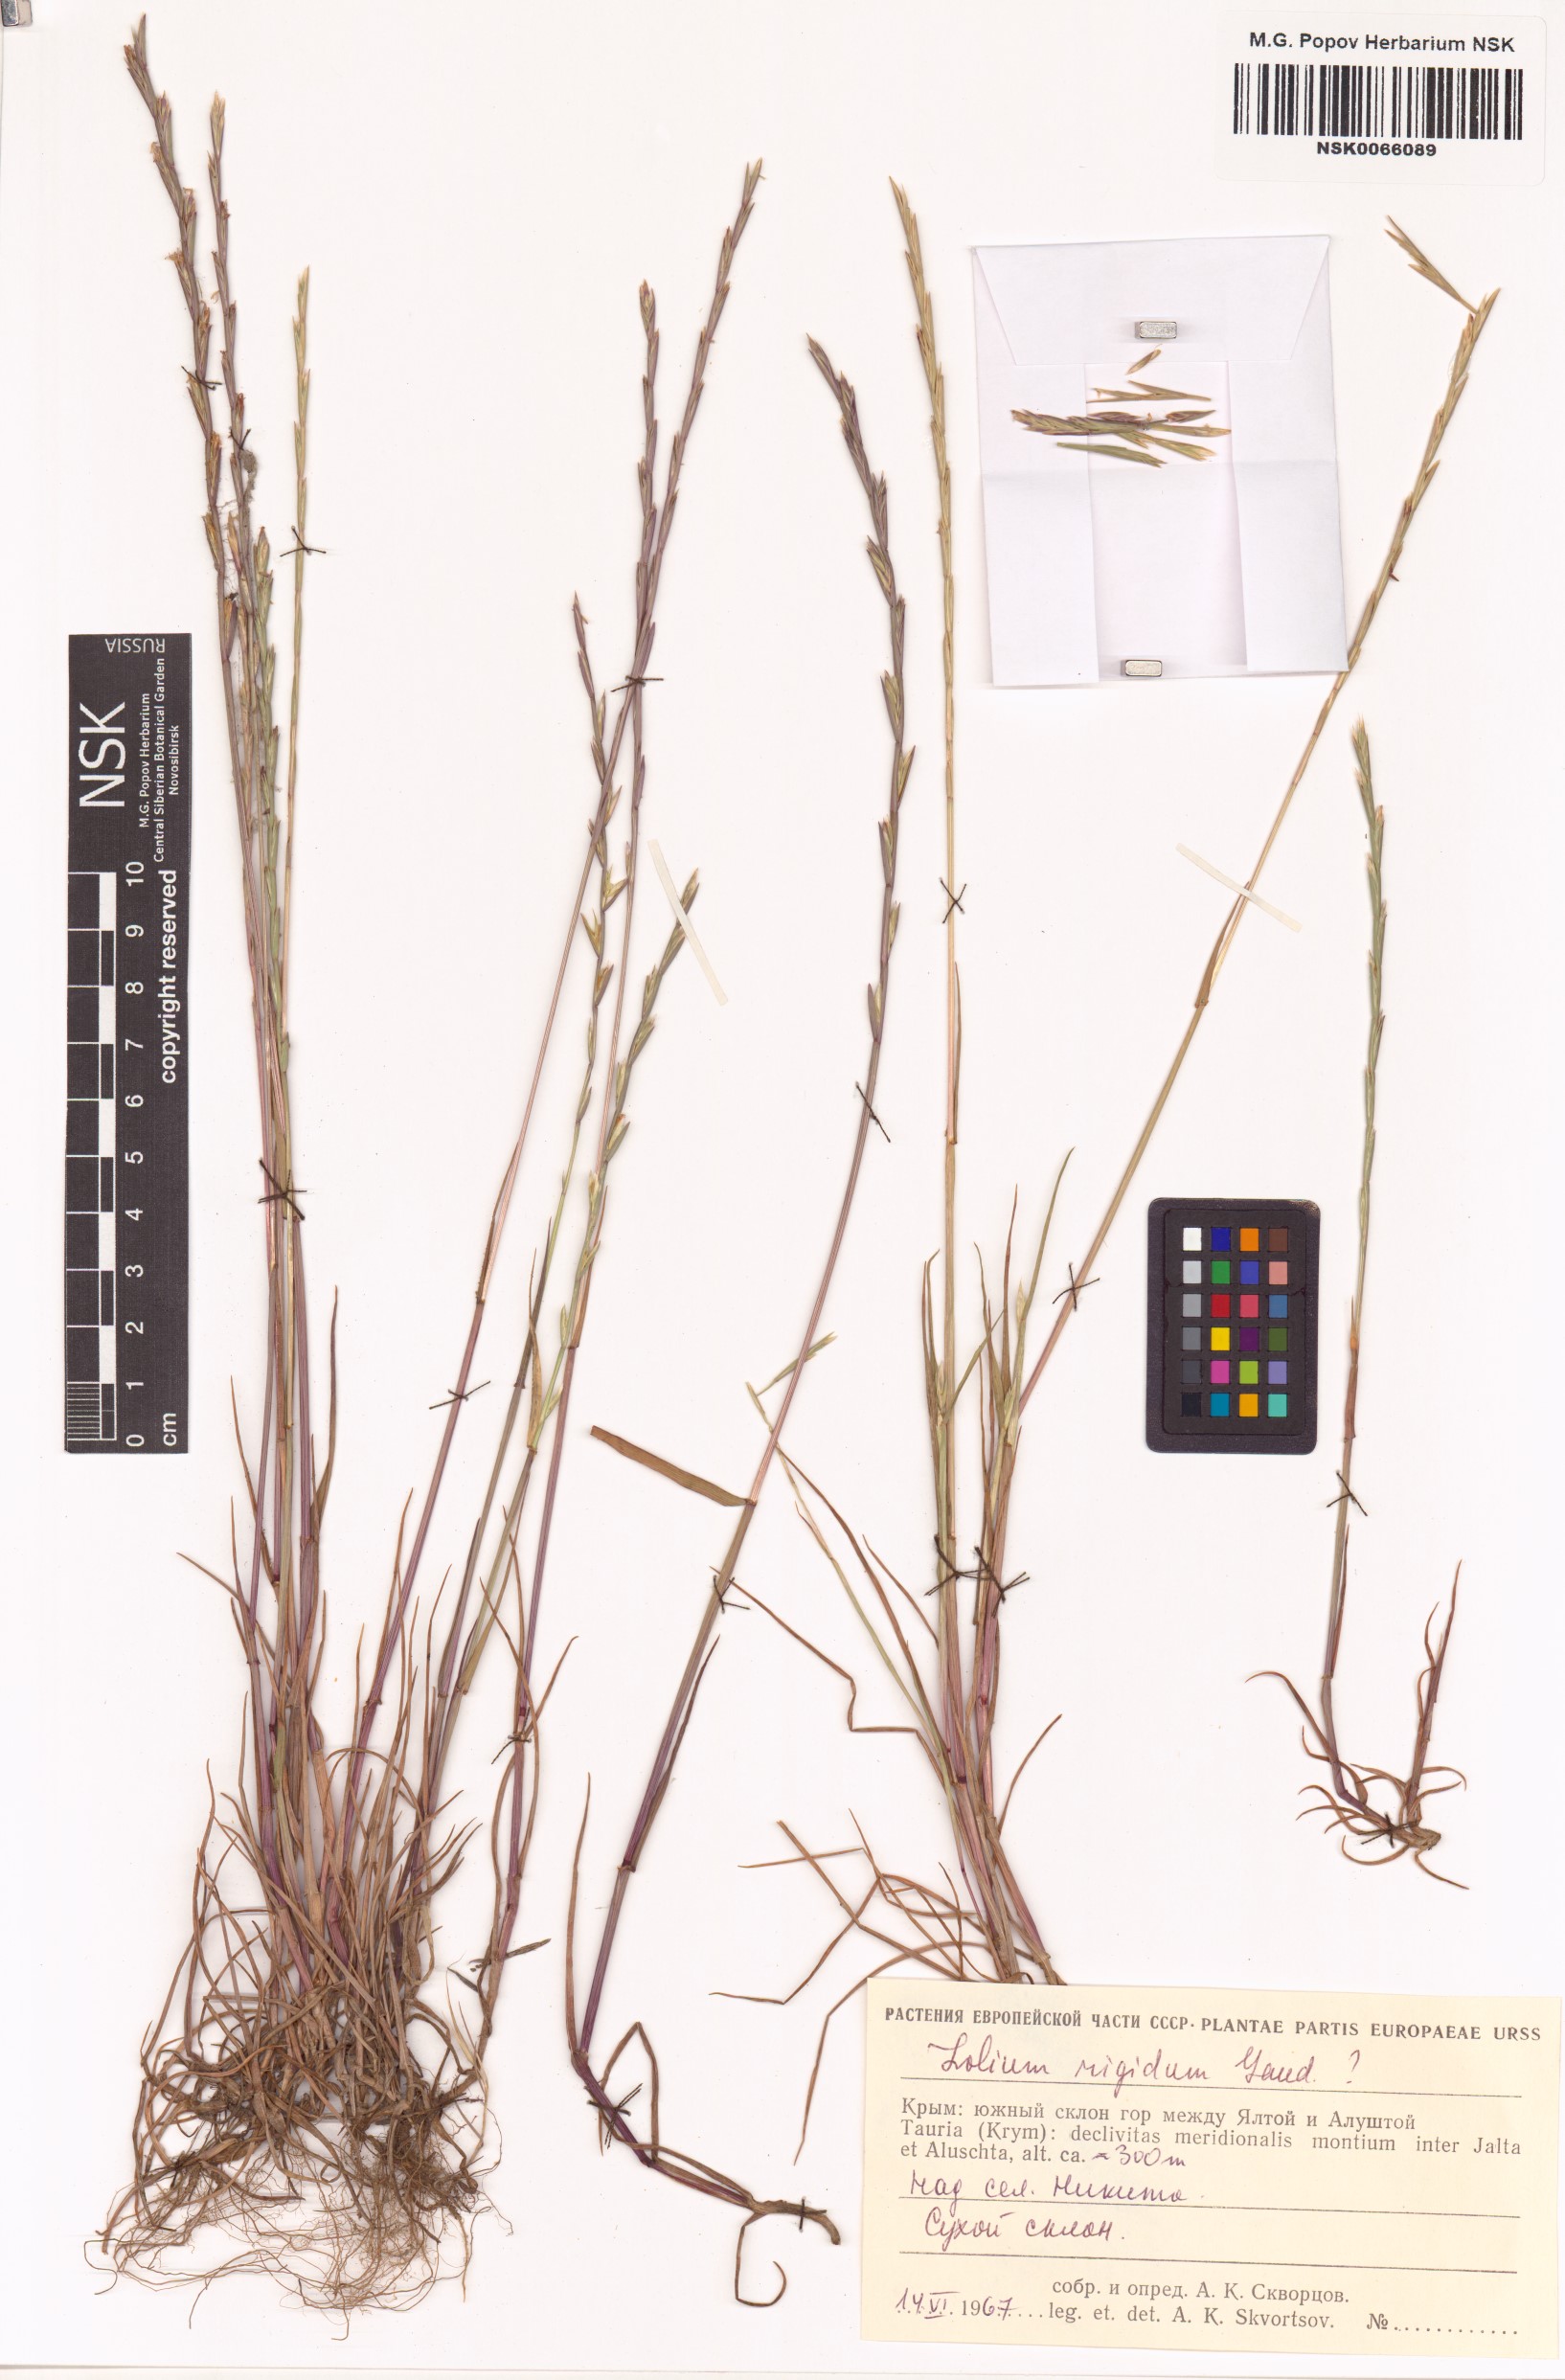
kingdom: Plantae
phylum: Tracheophyta
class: Liliopsida
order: Poales
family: Poaceae
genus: Lolium
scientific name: Lolium rigidum
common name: Wimmera ryegrass
